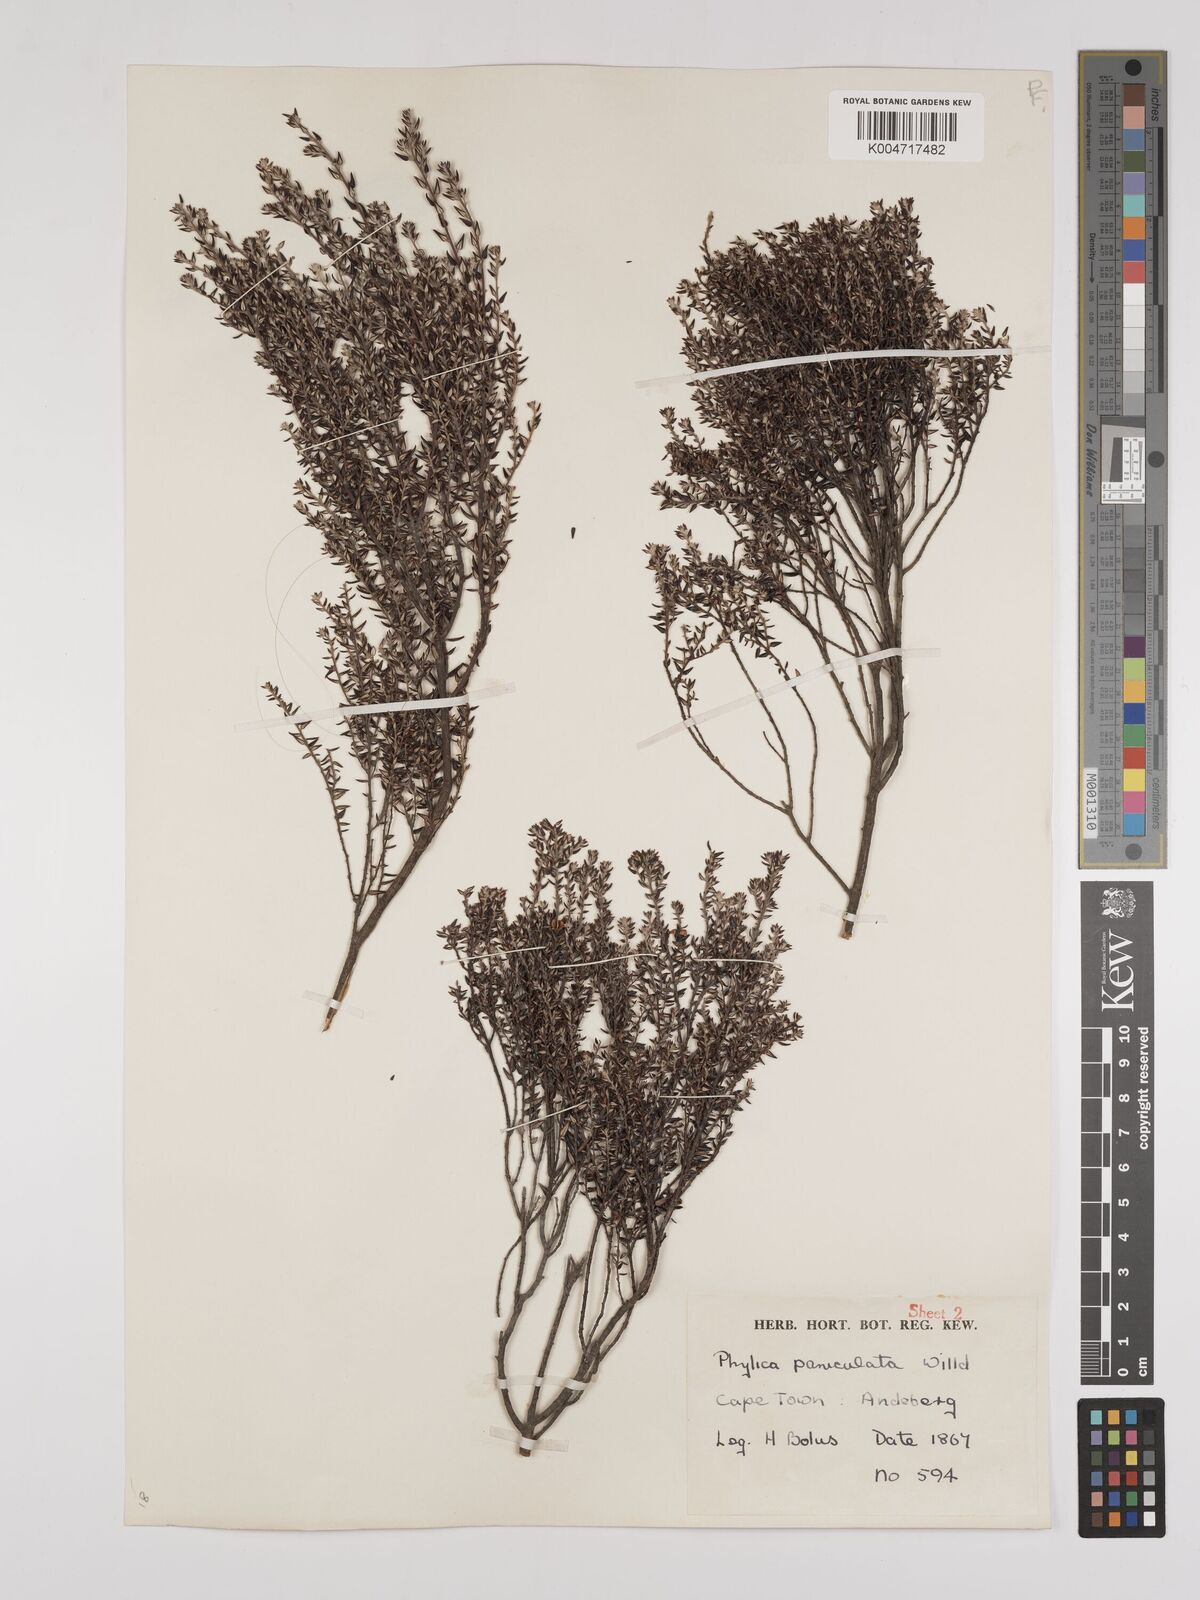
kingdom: Plantae
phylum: Tracheophyta
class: Magnoliopsida
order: Rosales
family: Rhamnaceae
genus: Phylica
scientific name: Phylica paniculata
